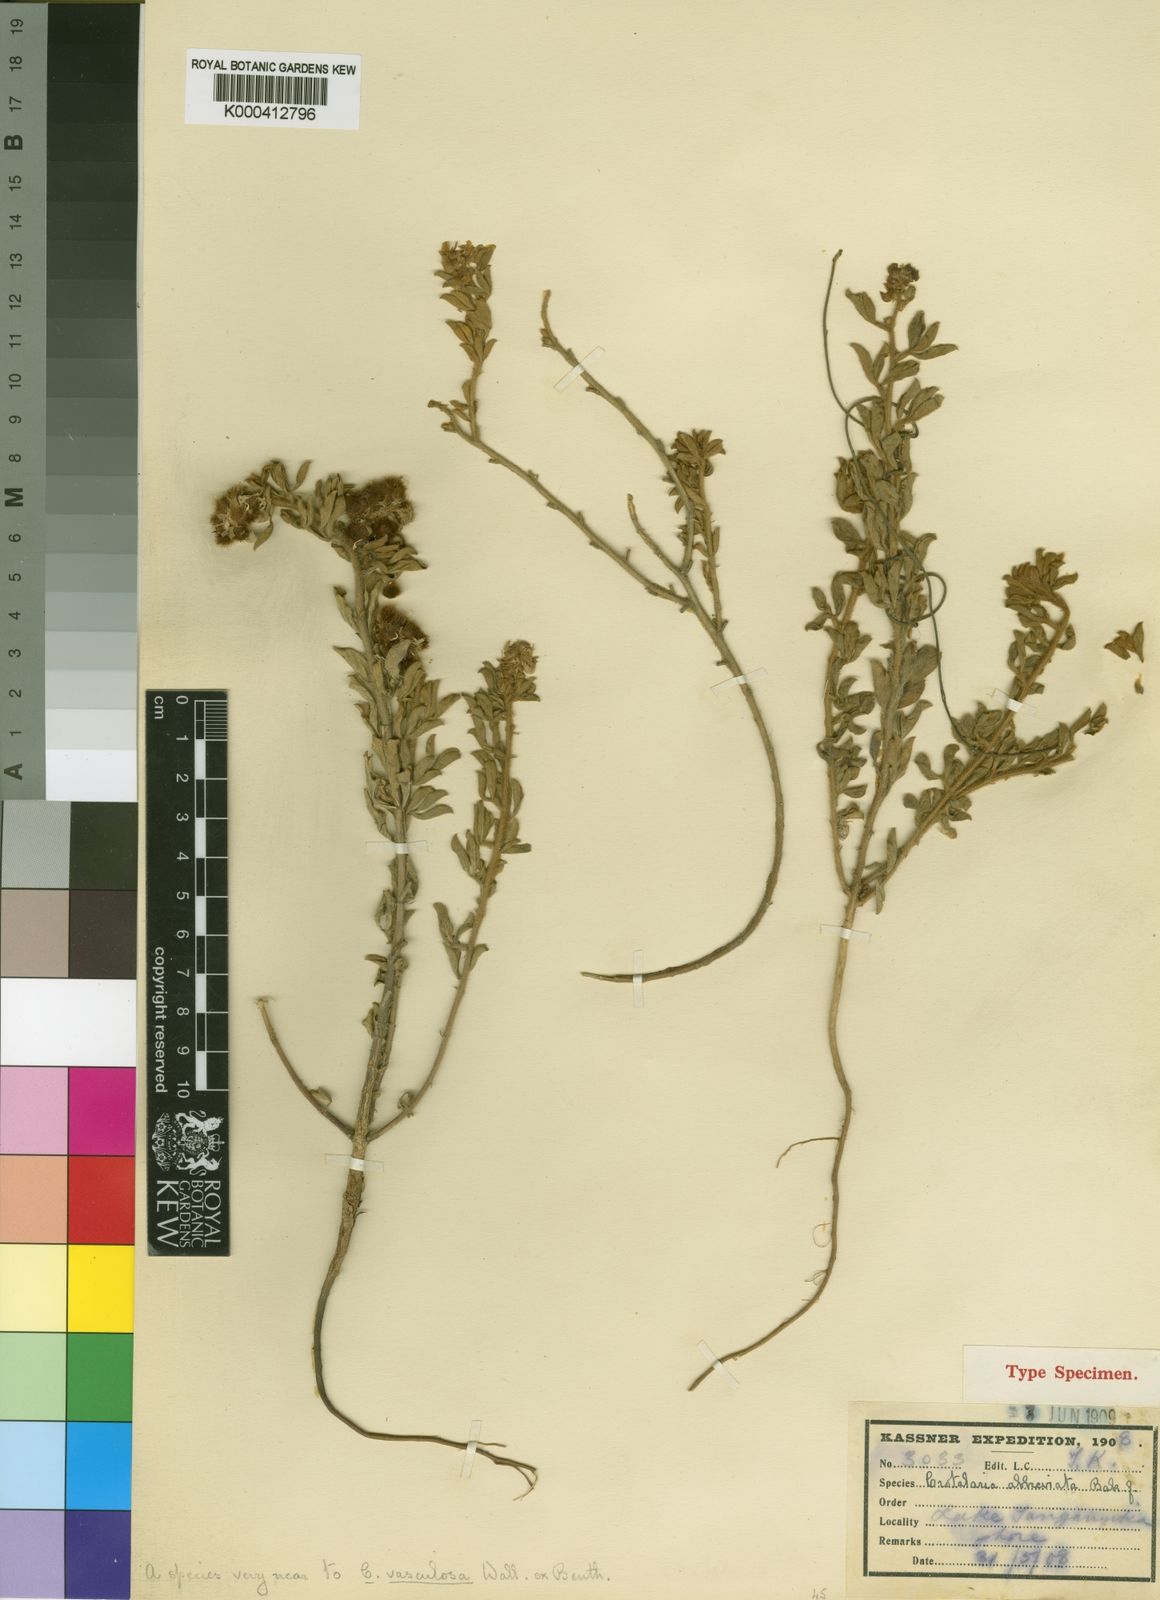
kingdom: Plantae
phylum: Tracheophyta
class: Magnoliopsida
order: Fabales
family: Fabaceae
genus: Crotalaria
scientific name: Crotalaria abbreviata
